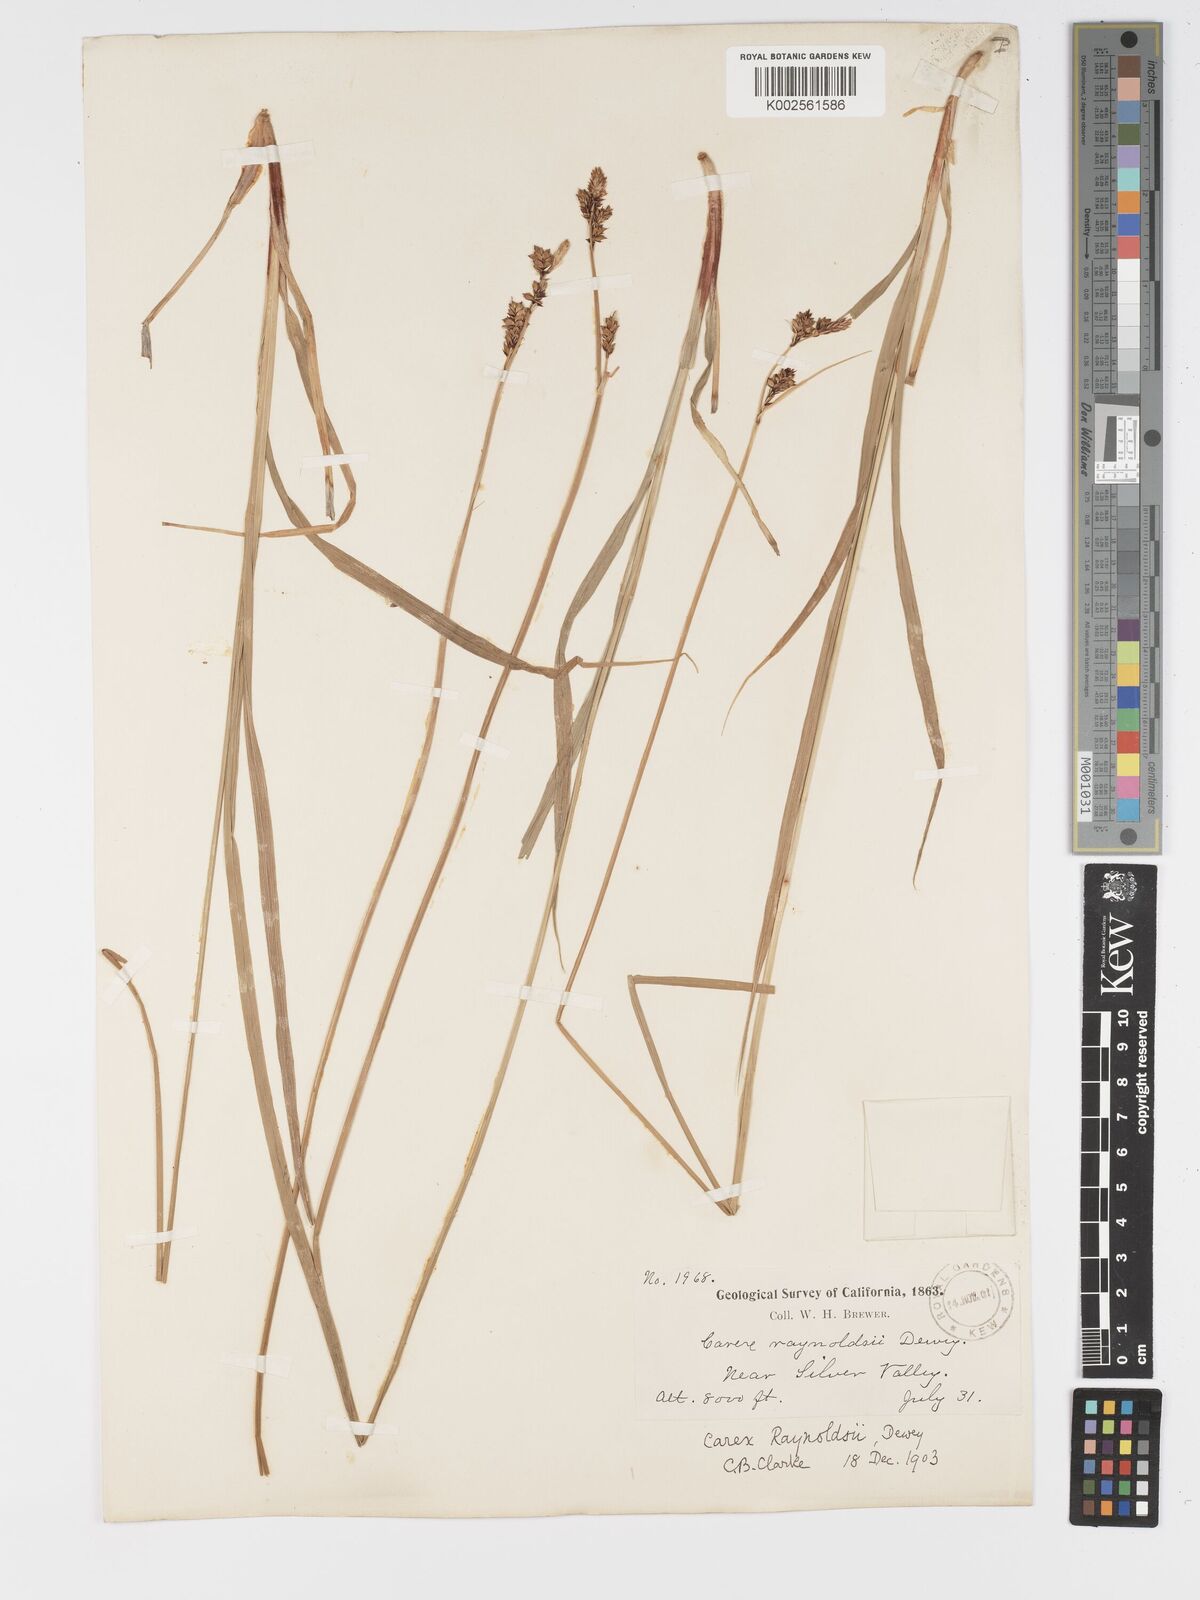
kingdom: Plantae
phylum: Tracheophyta
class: Liliopsida
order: Poales
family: Cyperaceae
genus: Carex
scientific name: Carex raynoldsii
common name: Raynolds' sedge
